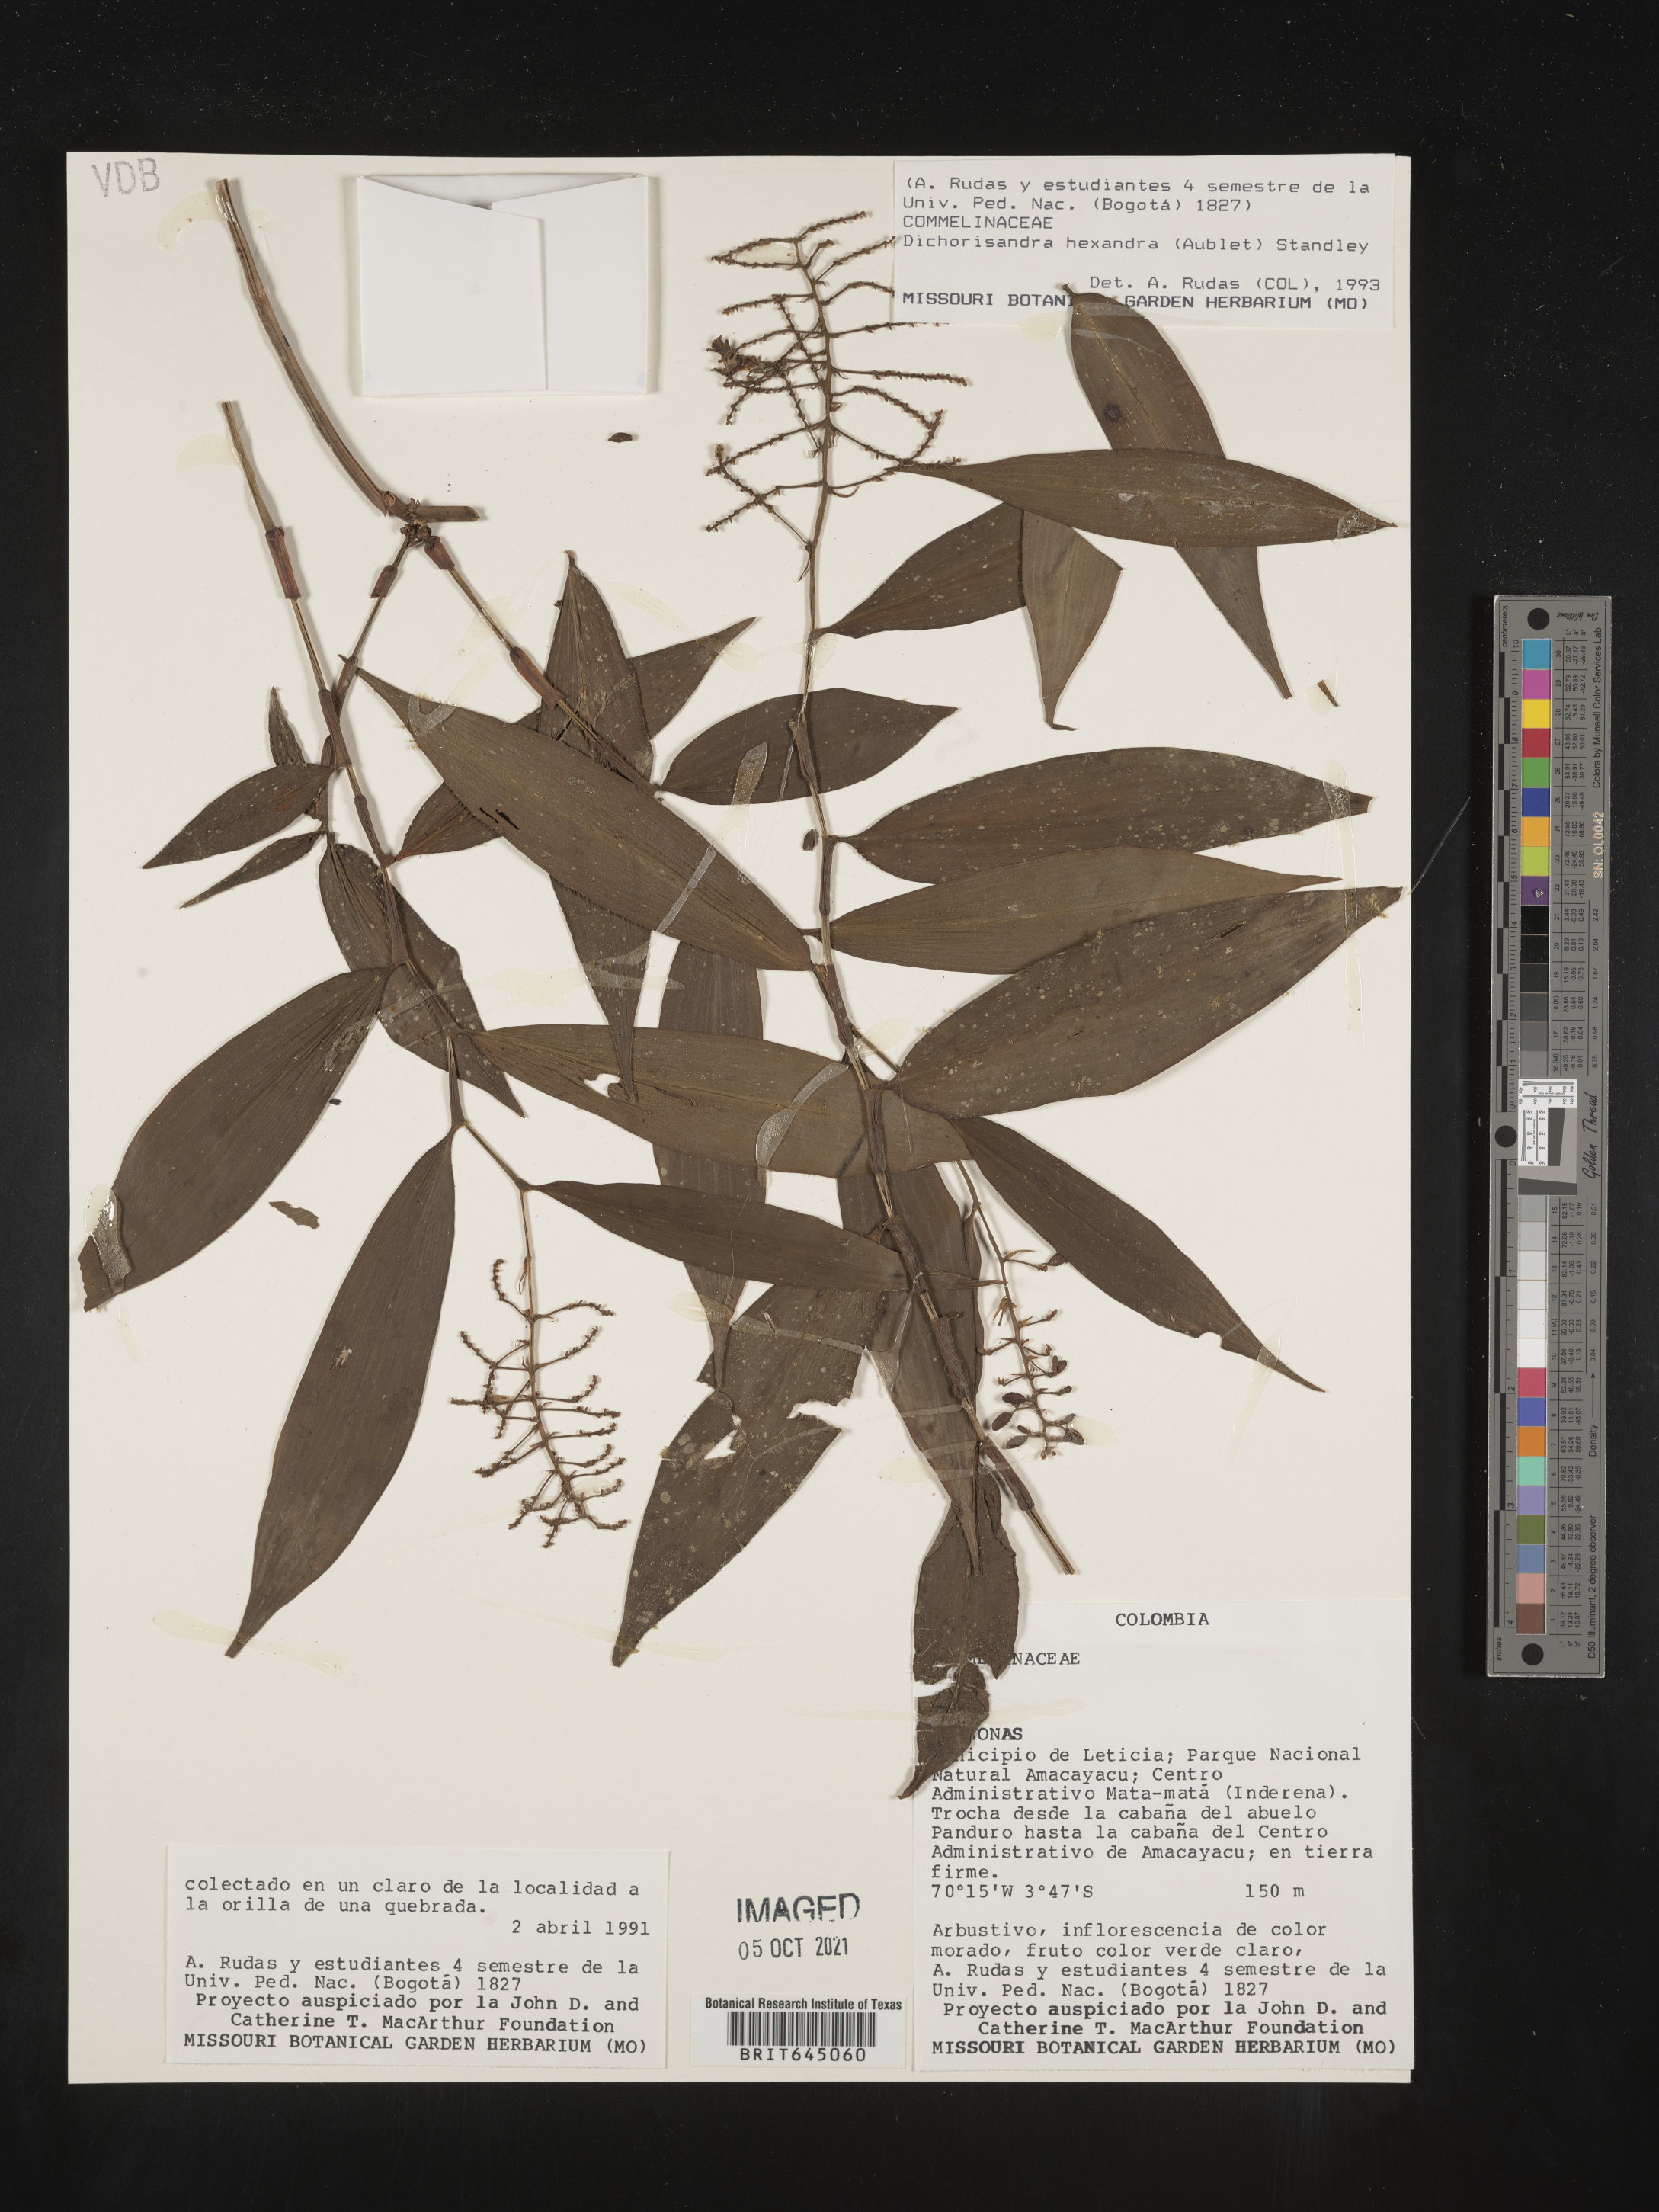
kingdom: Plantae
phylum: Tracheophyta
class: Liliopsida
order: Commelinales
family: Commelinaceae
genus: Dichorisandra
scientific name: Dichorisandra hexandra
